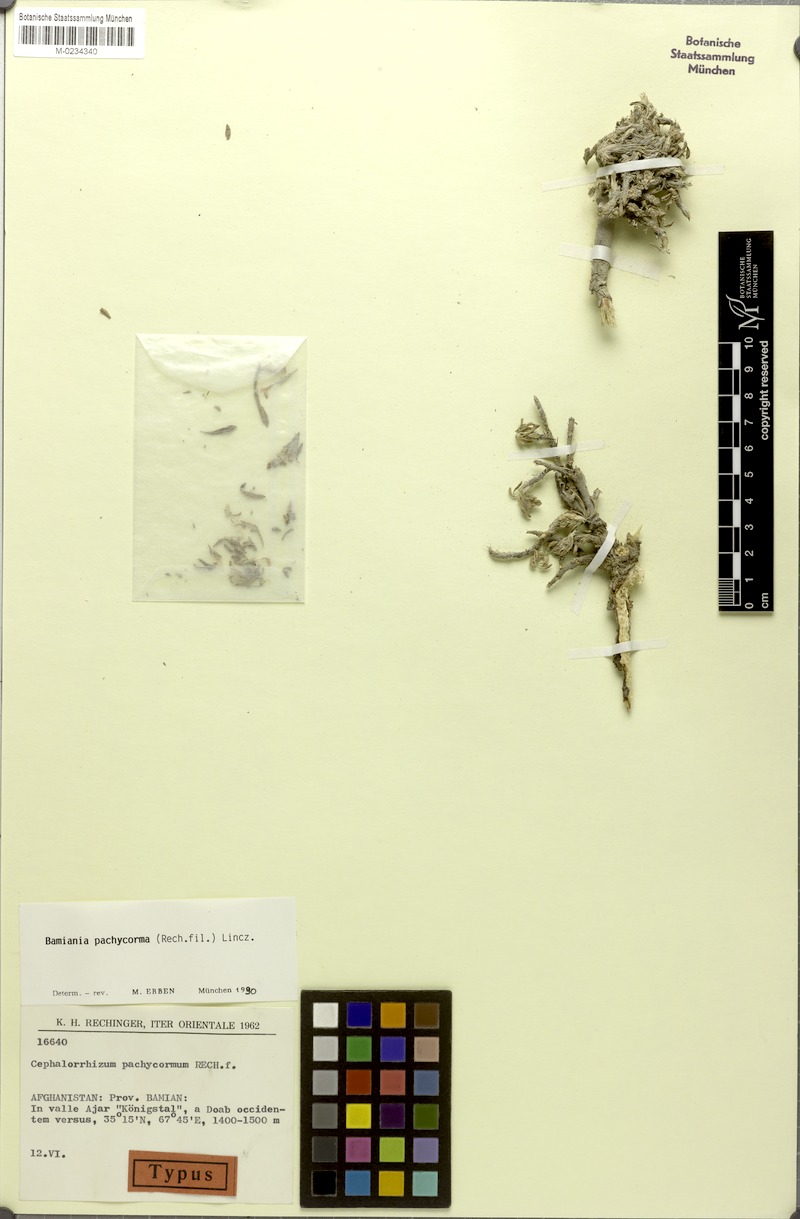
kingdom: Plantae
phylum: Tracheophyta
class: Magnoliopsida
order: Caryophyllales
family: Plumbaginaceae
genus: Bamiania
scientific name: Bamiania pachycorma
